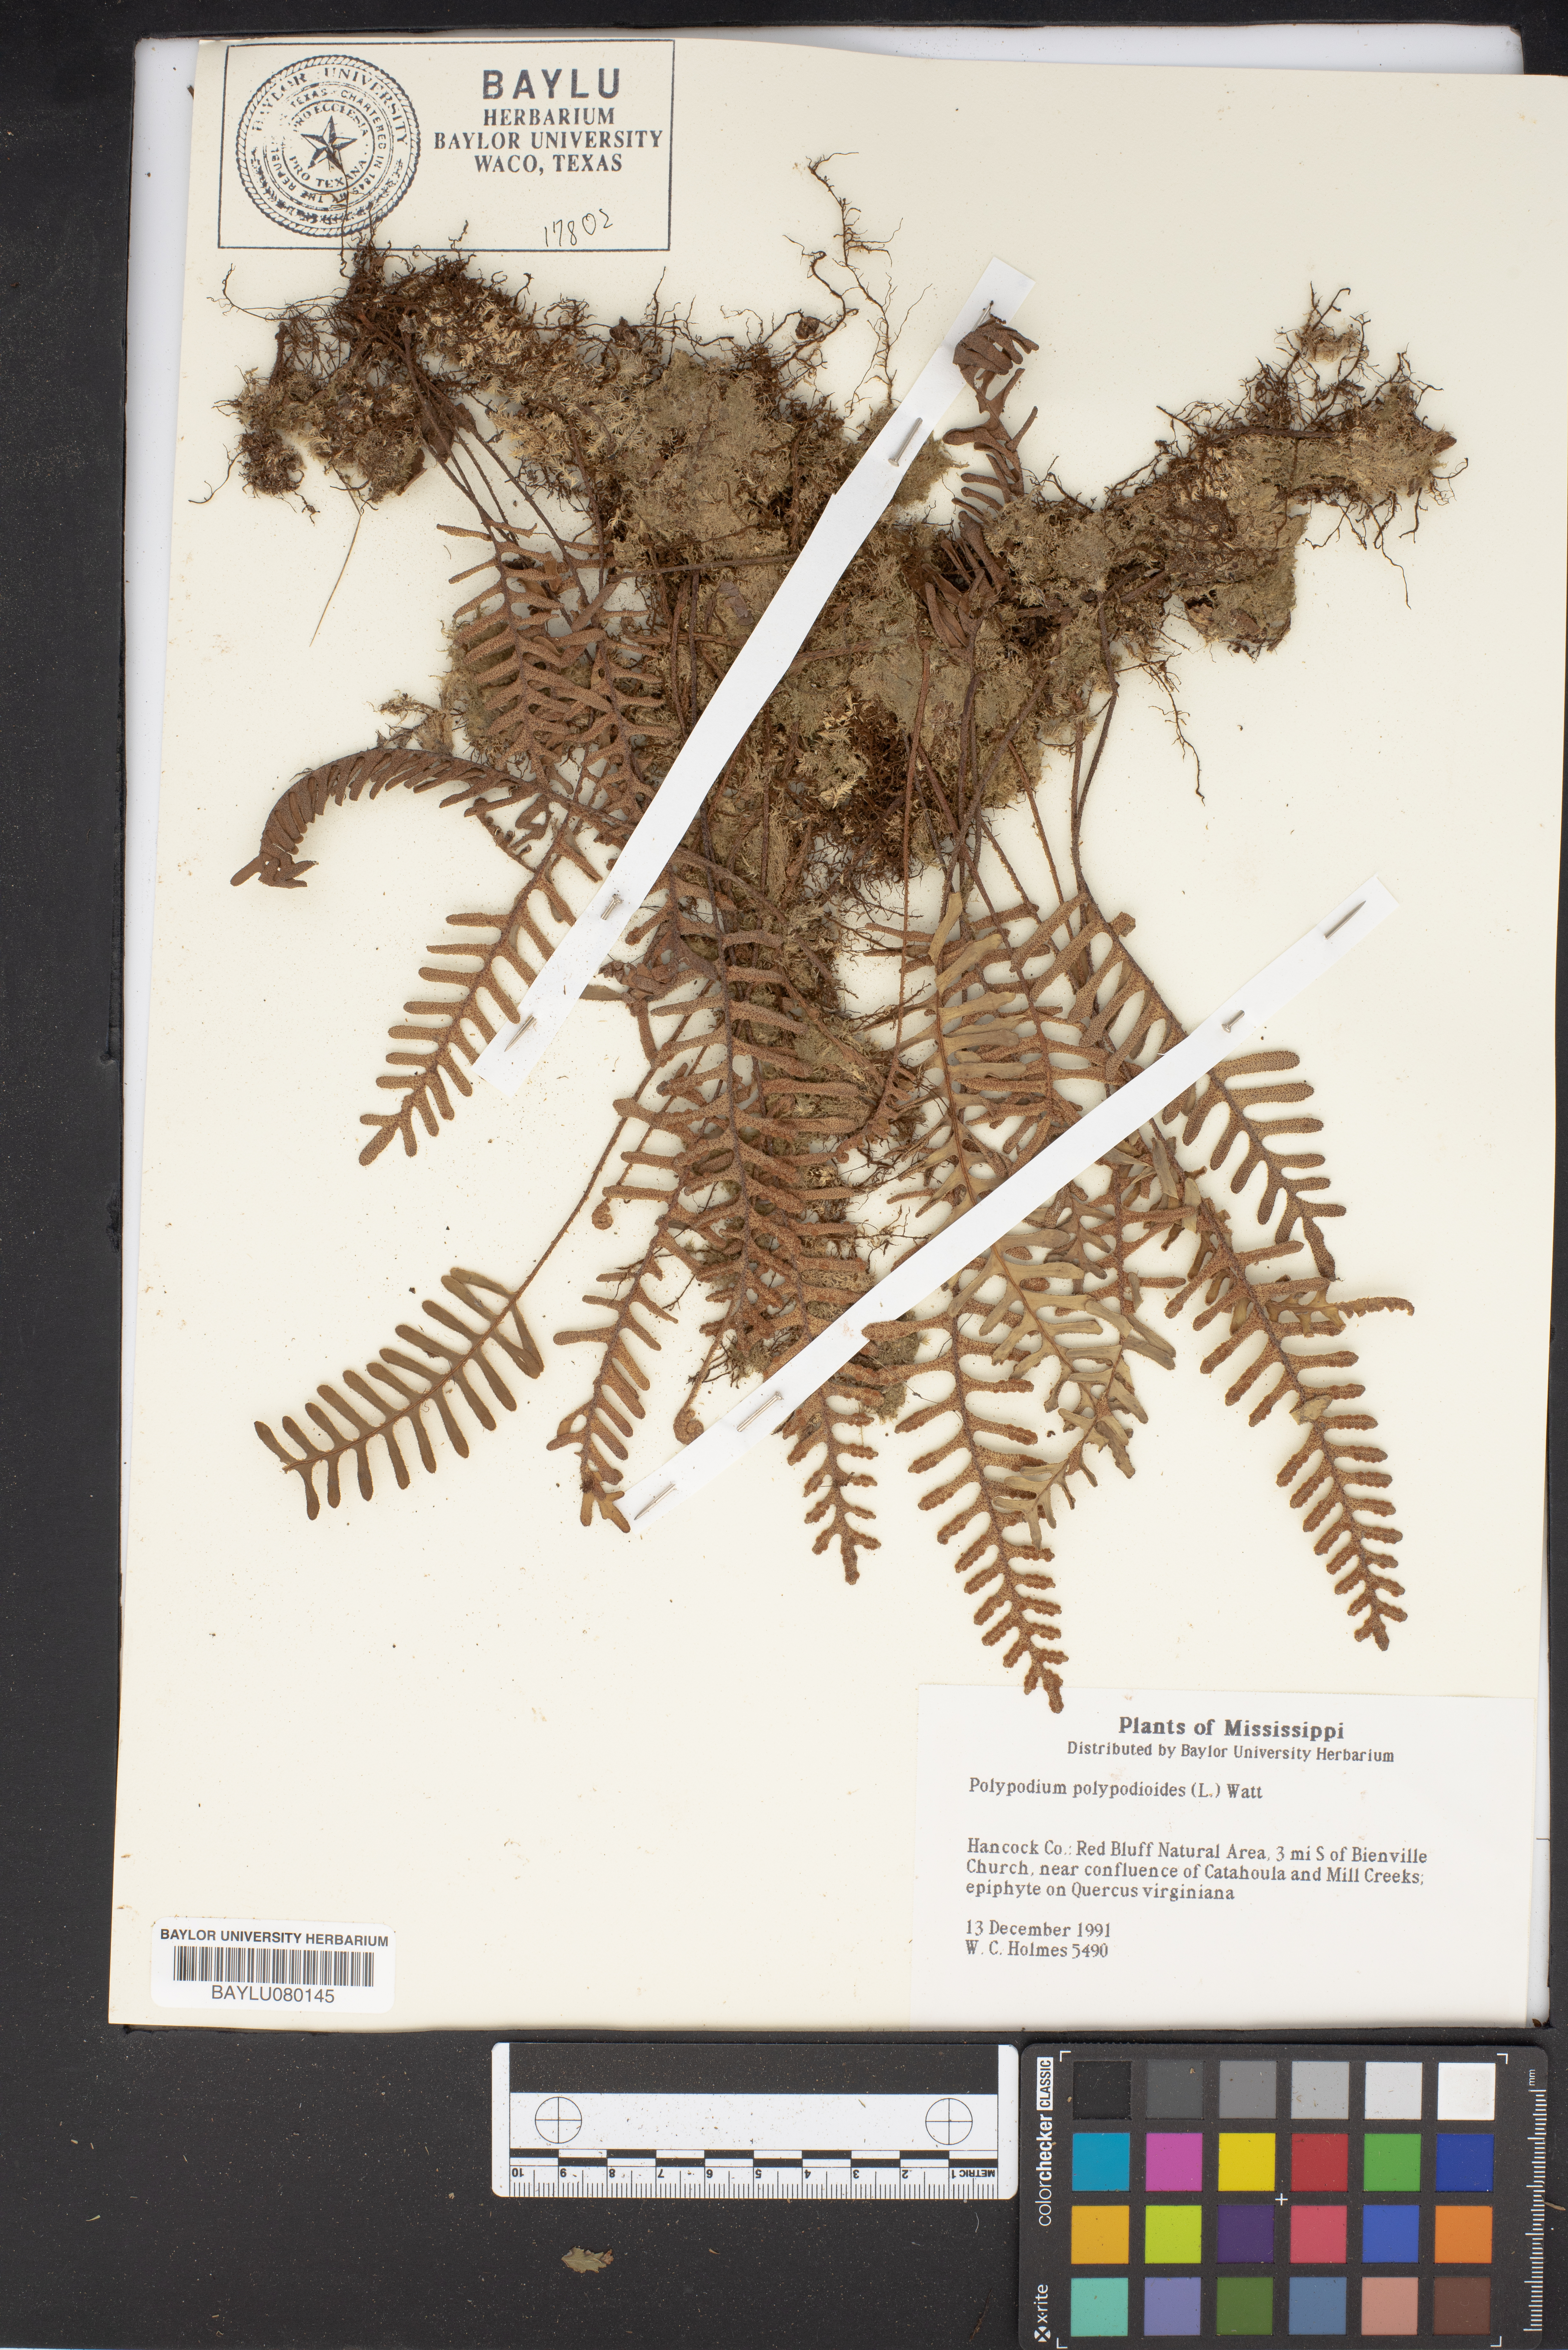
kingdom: Plantae
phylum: Tracheophyta
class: Polypodiopsida
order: Polypodiales
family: Polypodiaceae
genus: Pleopeltis
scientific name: Pleopeltis polypodioides
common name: Resurrection fern
